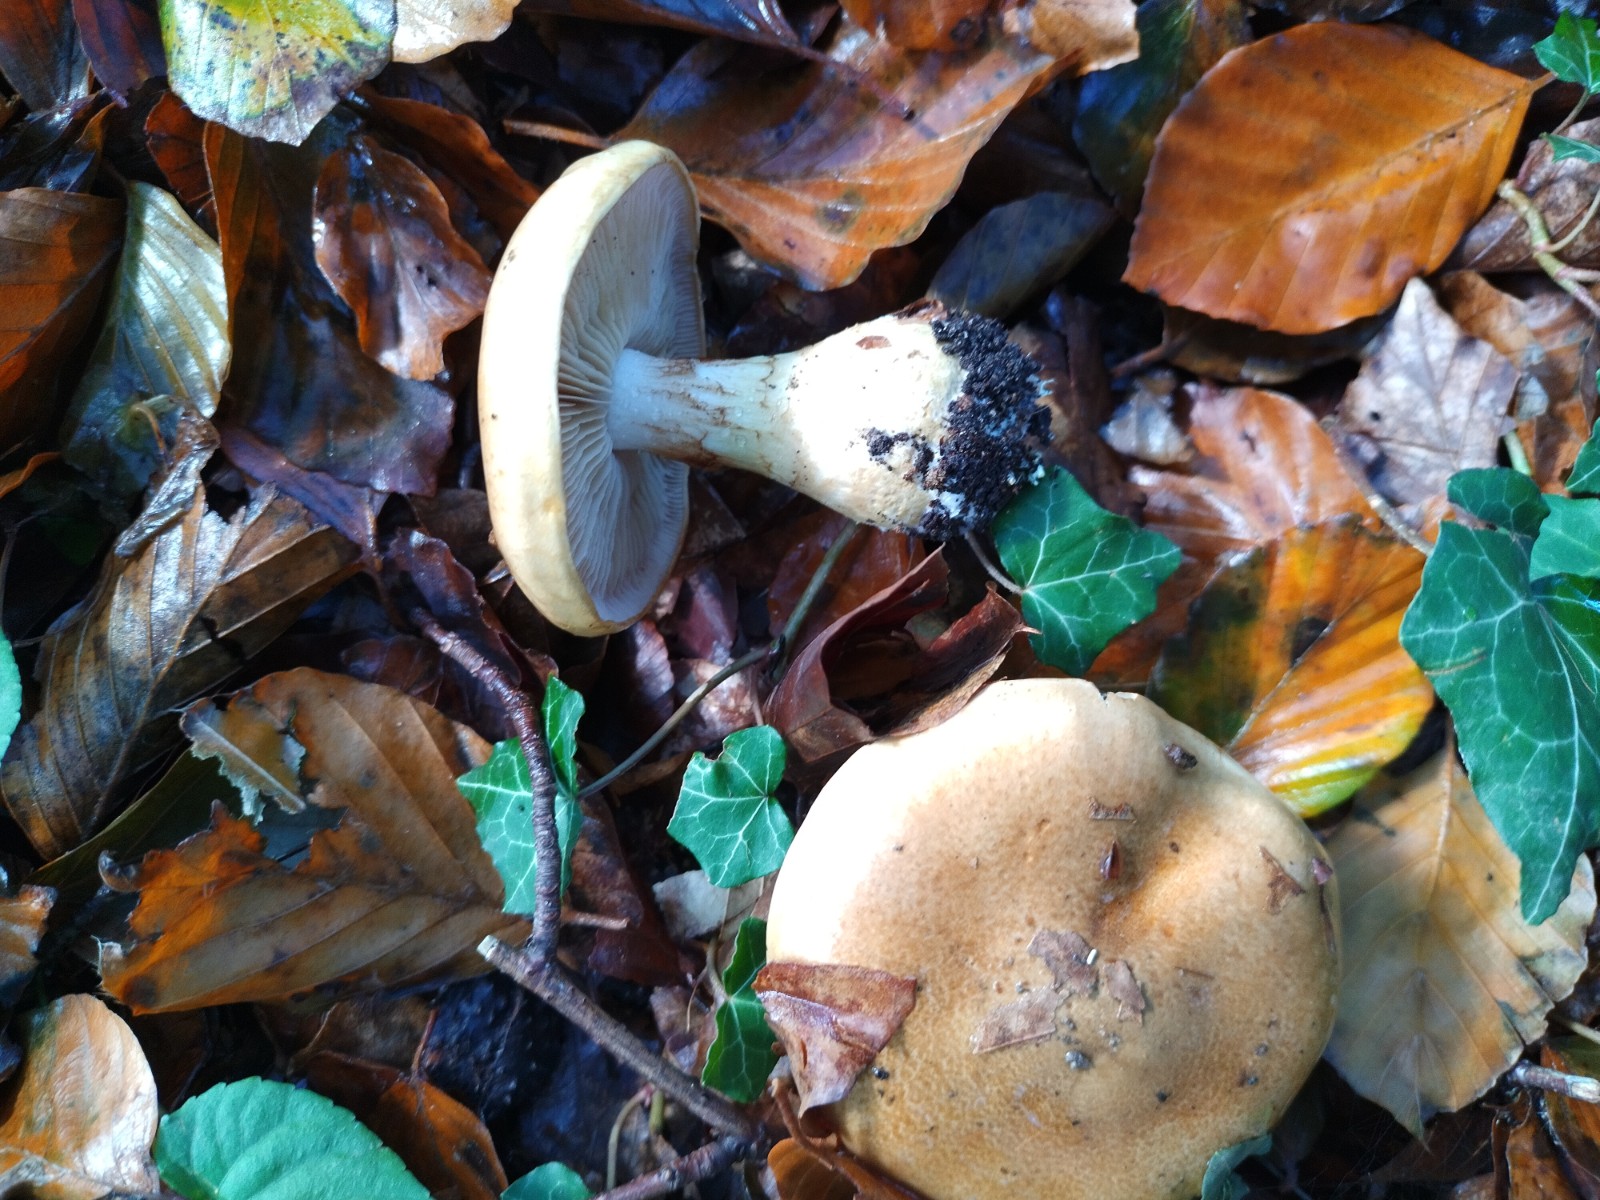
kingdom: Fungi
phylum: Basidiomycota
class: Agaricomycetes
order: Agaricales
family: Cortinariaceae
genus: Phlegmacium
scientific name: Phlegmacium cliduchus
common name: majs-slørhat
